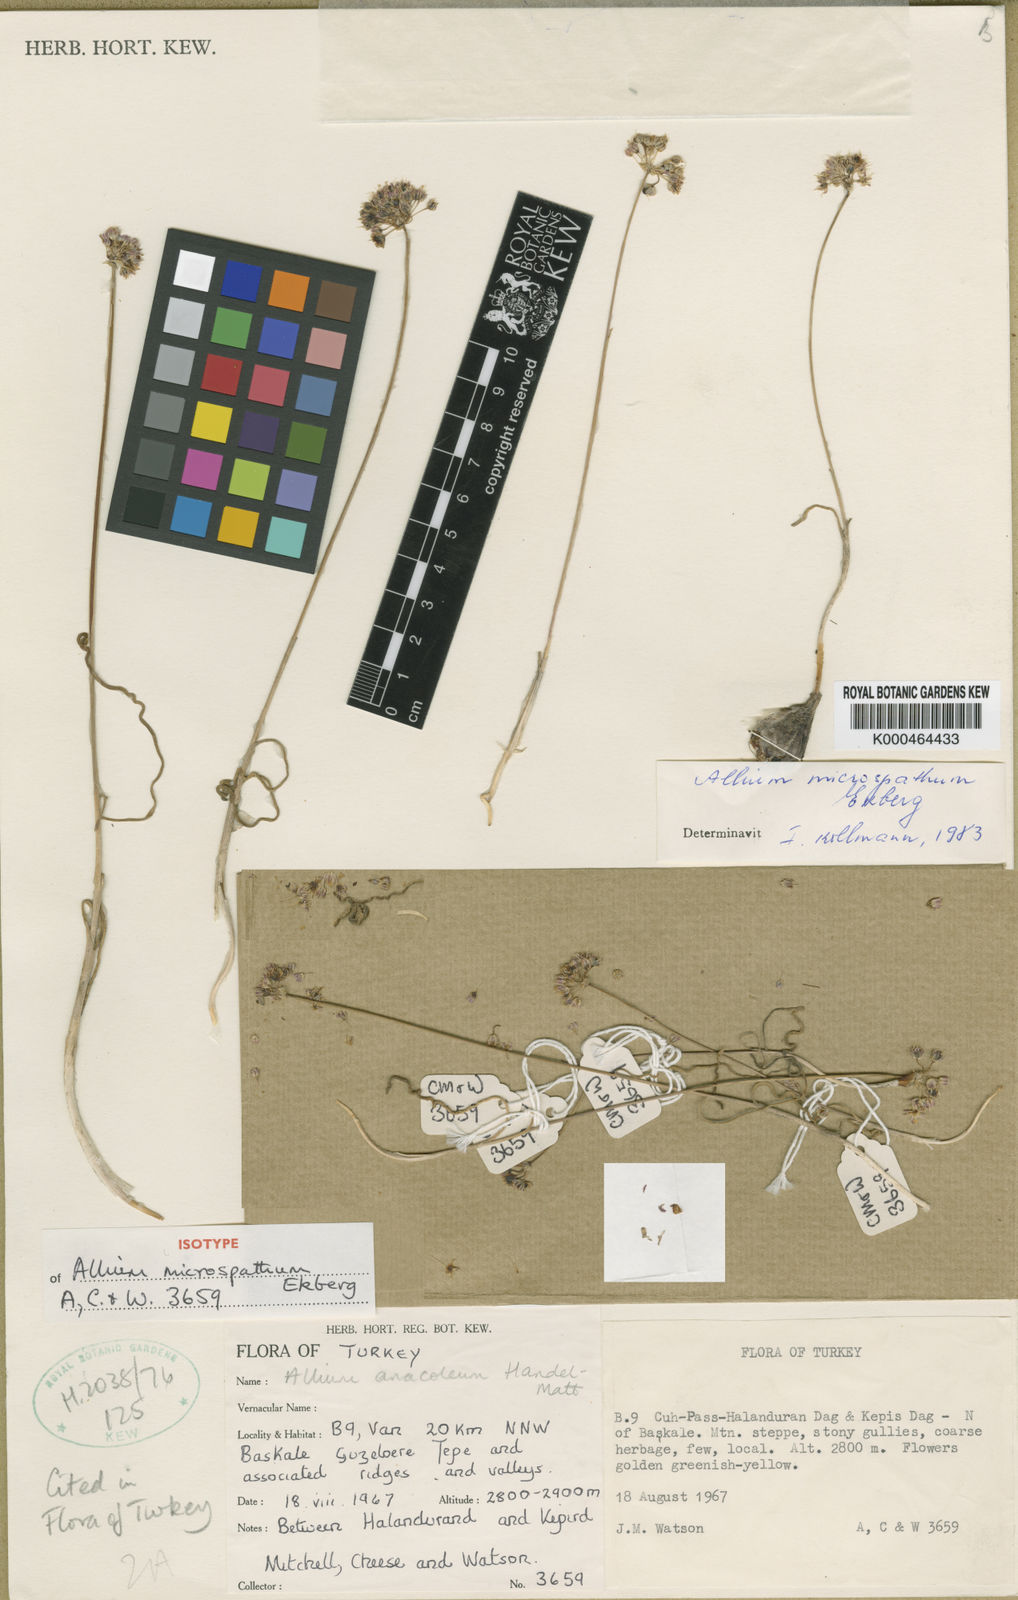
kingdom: Plantae
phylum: Tracheophyta
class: Liliopsida
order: Asparagales
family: Amaryllidaceae
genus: Allium
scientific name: Allium microspathum
